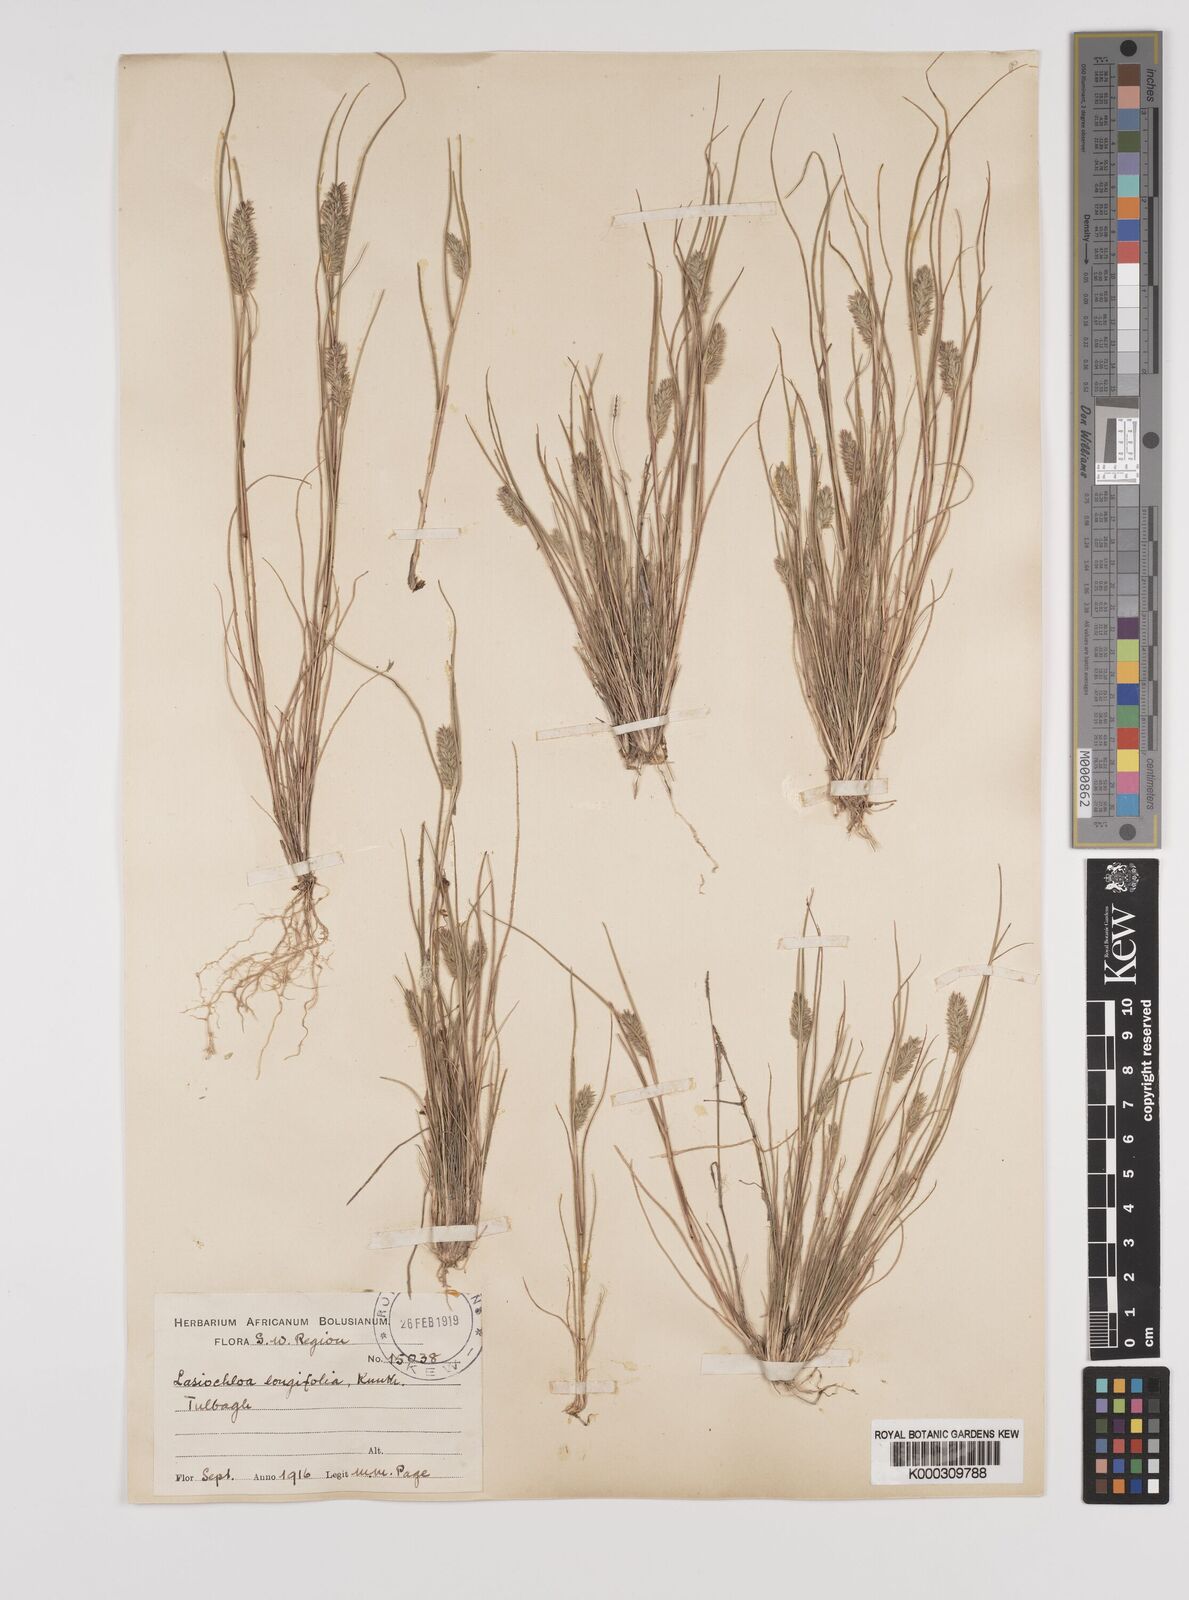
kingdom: Plantae
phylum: Tracheophyta
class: Liliopsida
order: Poales
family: Poaceae
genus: Tribolium
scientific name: Tribolium hispidum
